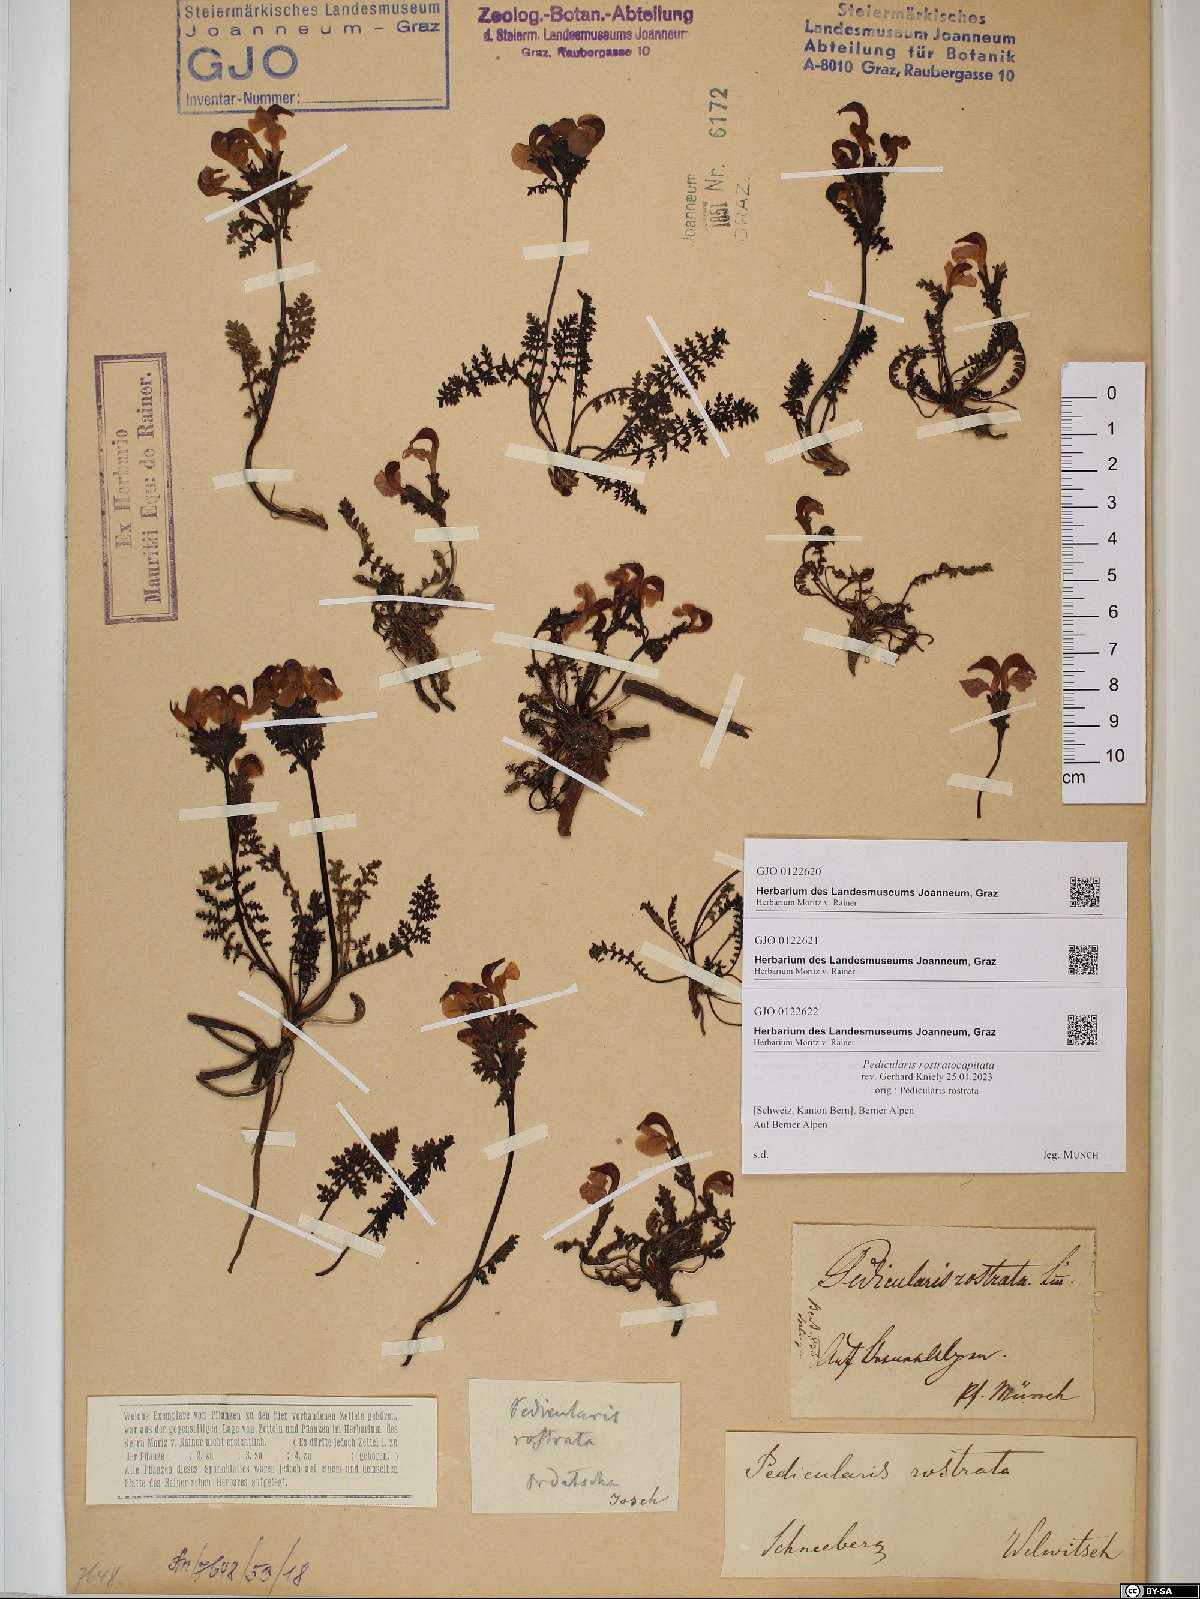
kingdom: Plantae
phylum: Tracheophyta
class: Magnoliopsida
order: Lamiales
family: Orobanchaceae
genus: Pedicularis
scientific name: Pedicularis rostratocapitata
